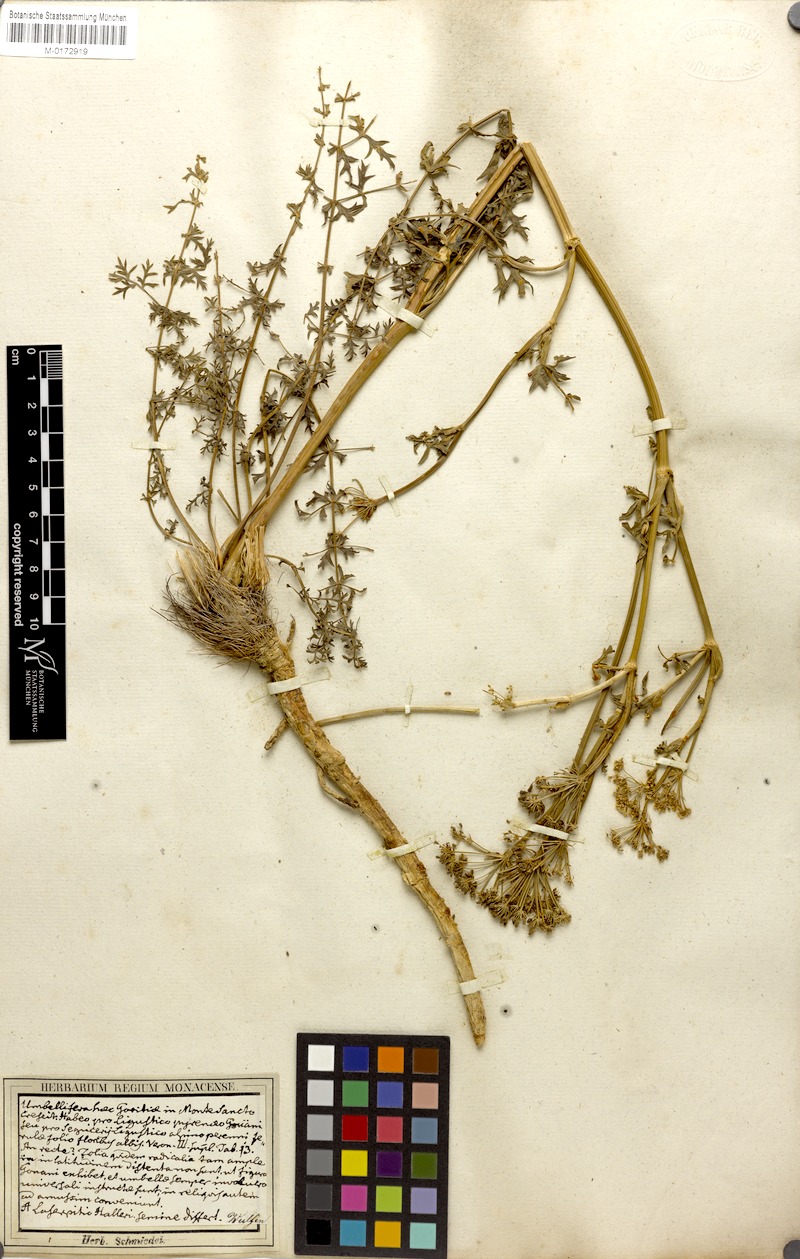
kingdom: Plantae
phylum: Tracheophyta
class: Magnoliopsida
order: Apiales
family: Apiaceae
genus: Seseli
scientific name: Seseli libanotis
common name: Mooncarrot
